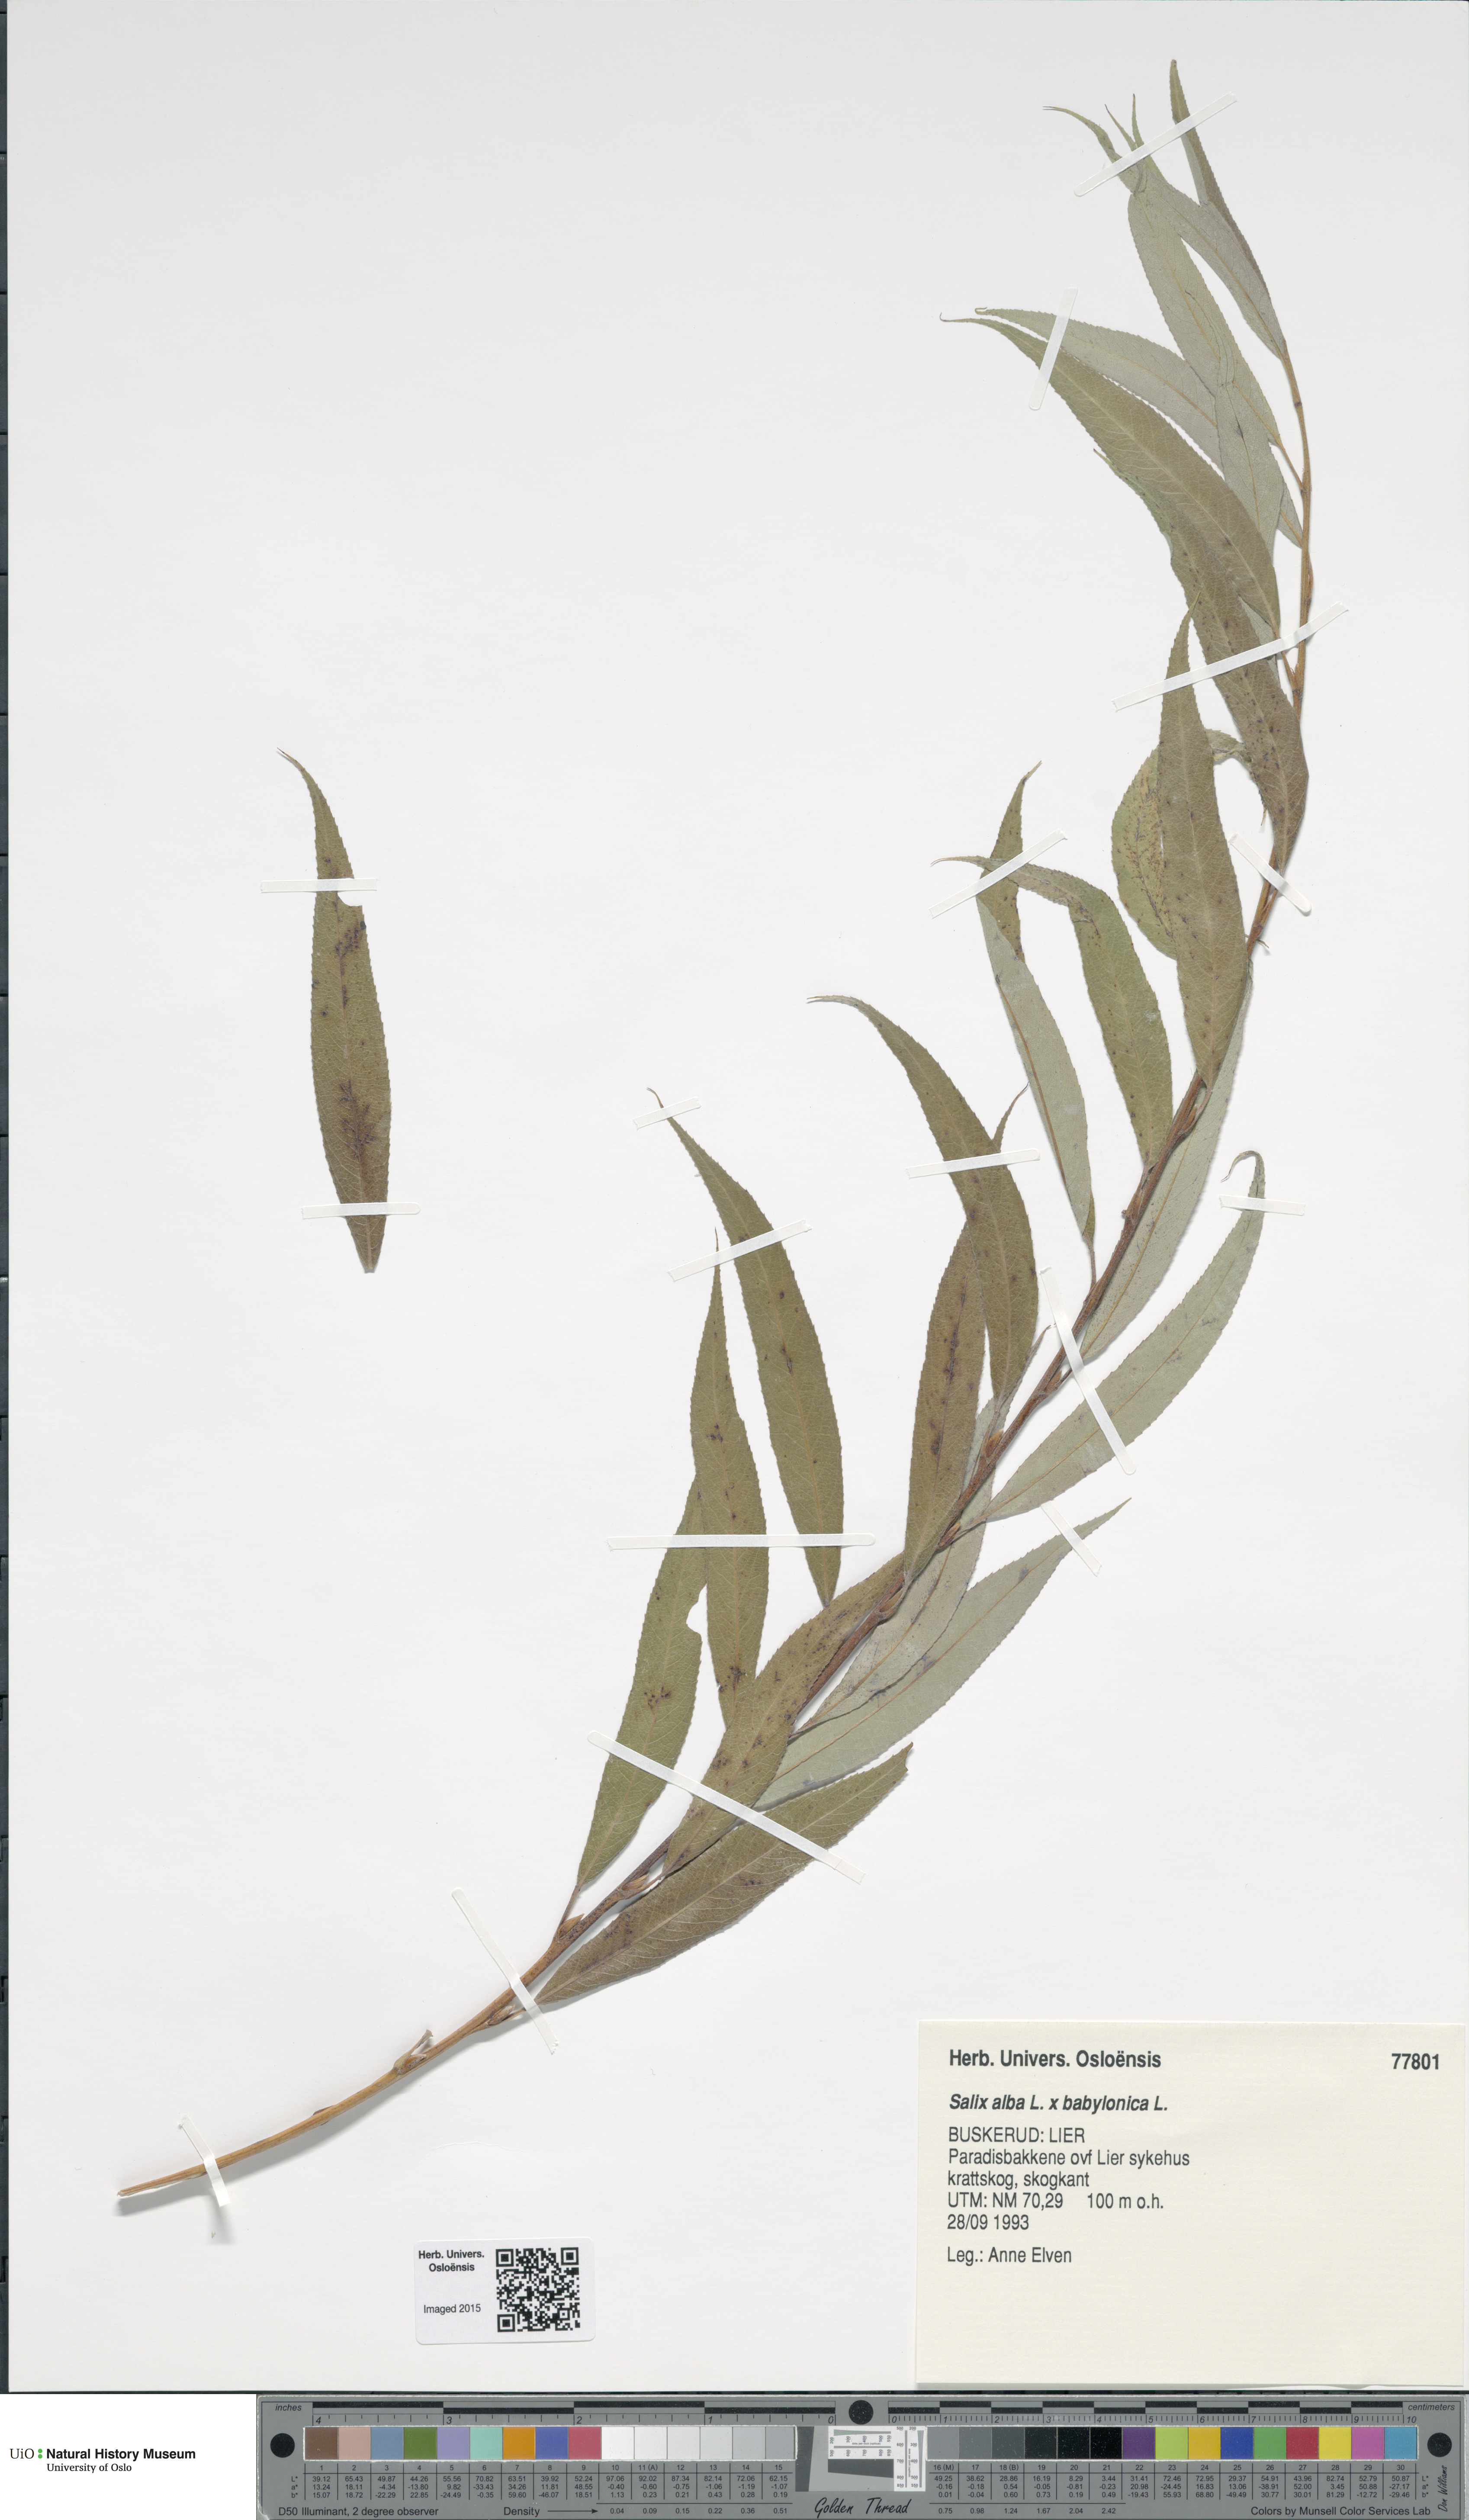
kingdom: Plantae
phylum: Tracheophyta
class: Magnoliopsida
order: Malpighiales
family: Salicaceae
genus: Salix
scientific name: Salix
